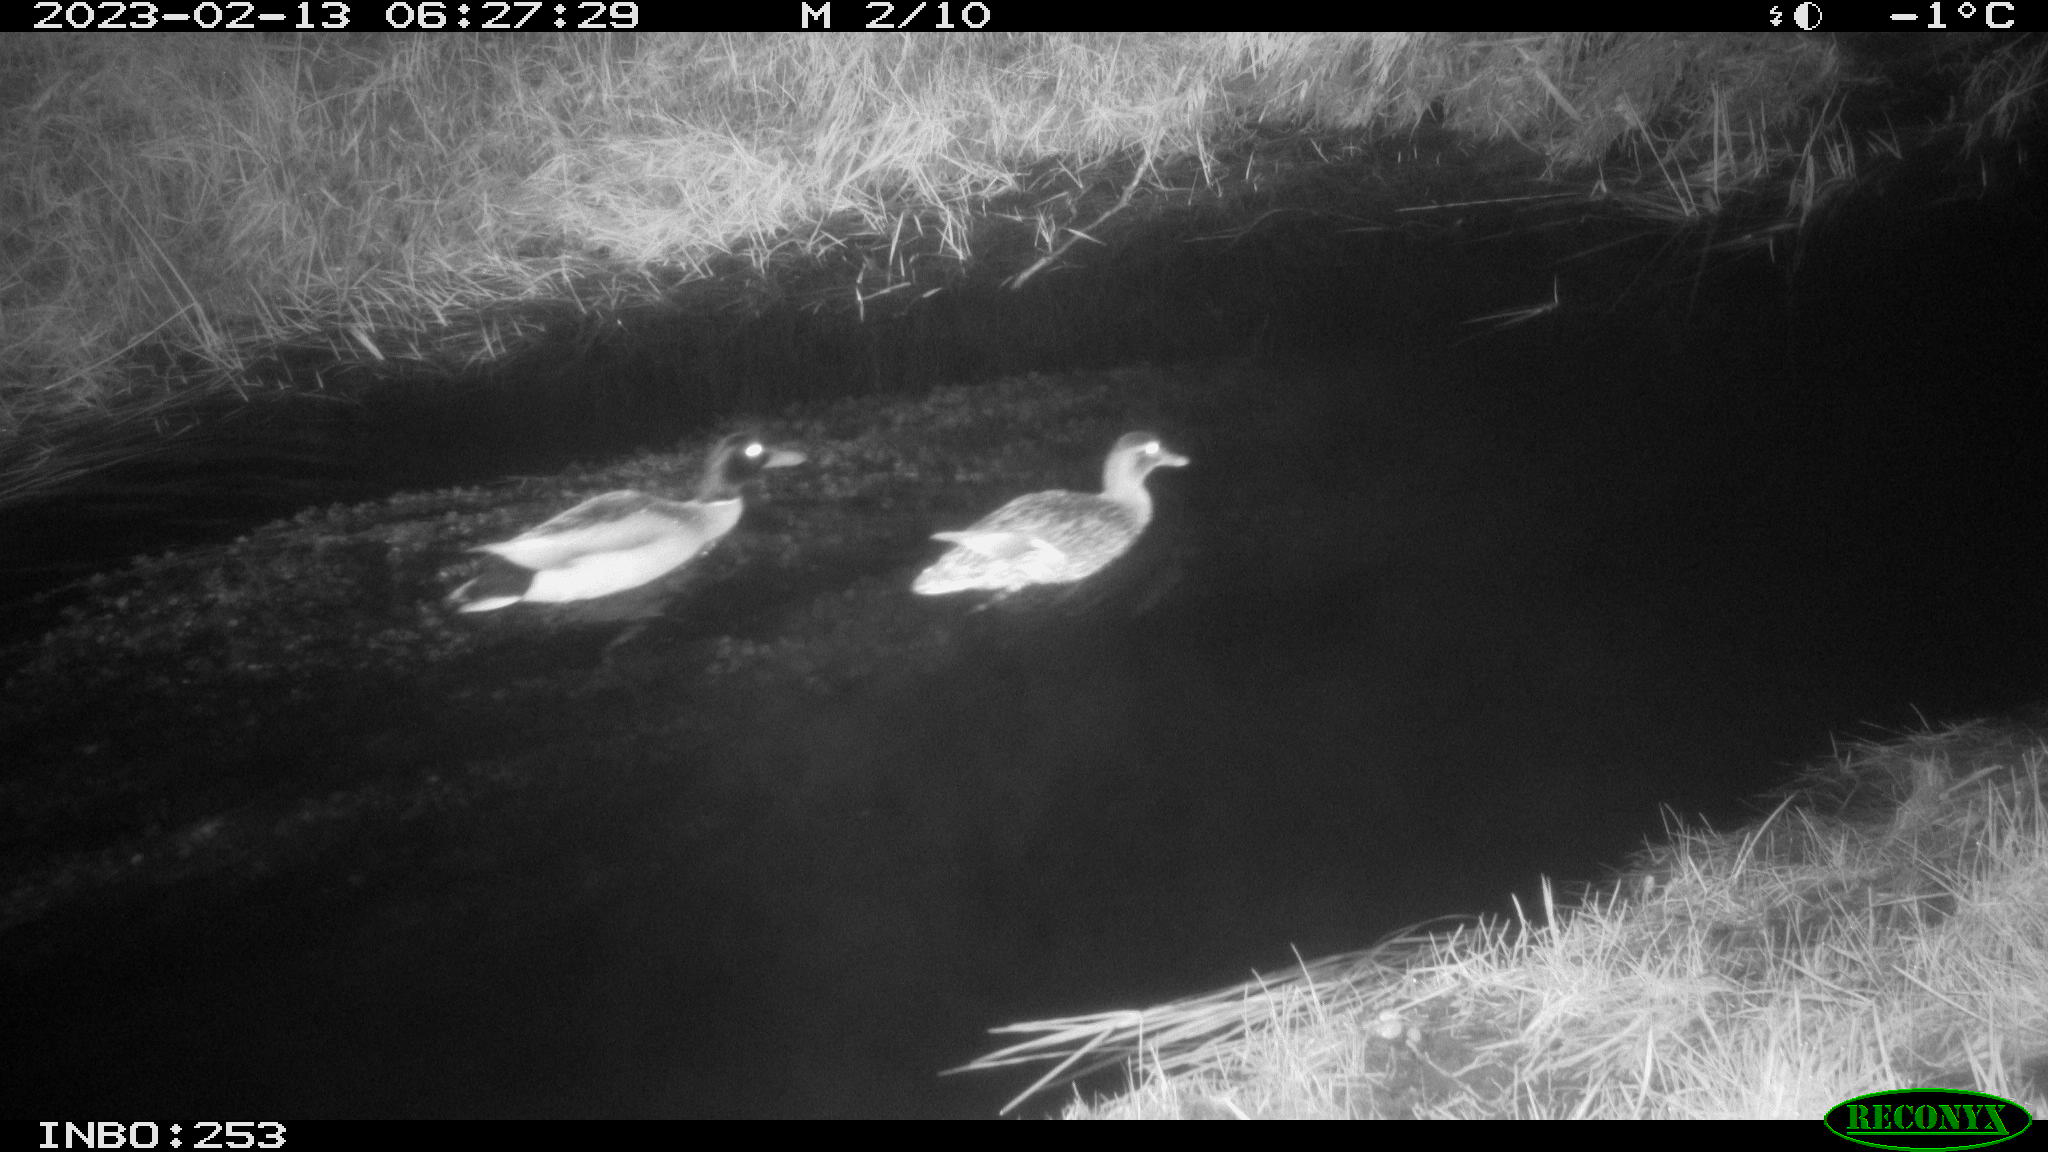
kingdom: Animalia
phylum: Chordata
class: Aves
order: Anseriformes
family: Anatidae
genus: Anas
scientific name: Anas
